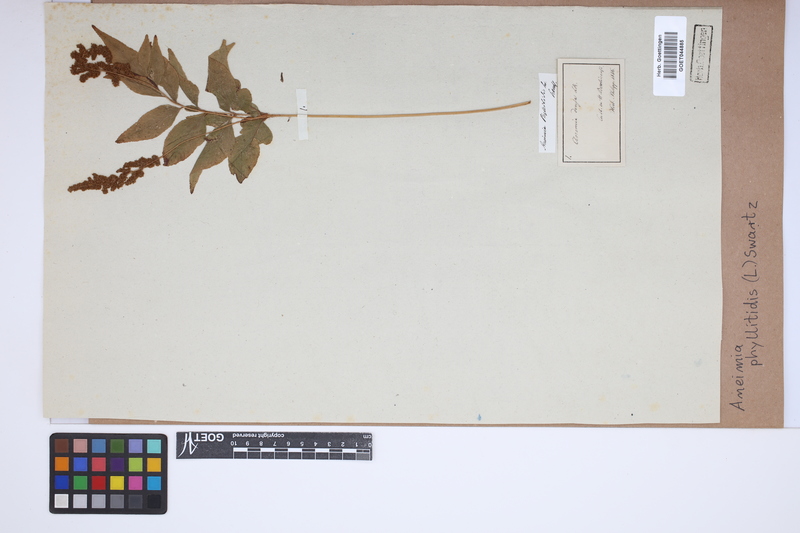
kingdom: Plantae
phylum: Tracheophyta
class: Polypodiopsida
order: Schizaeales
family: Anemiaceae
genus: Anemia
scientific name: Anemia phyllitidis
